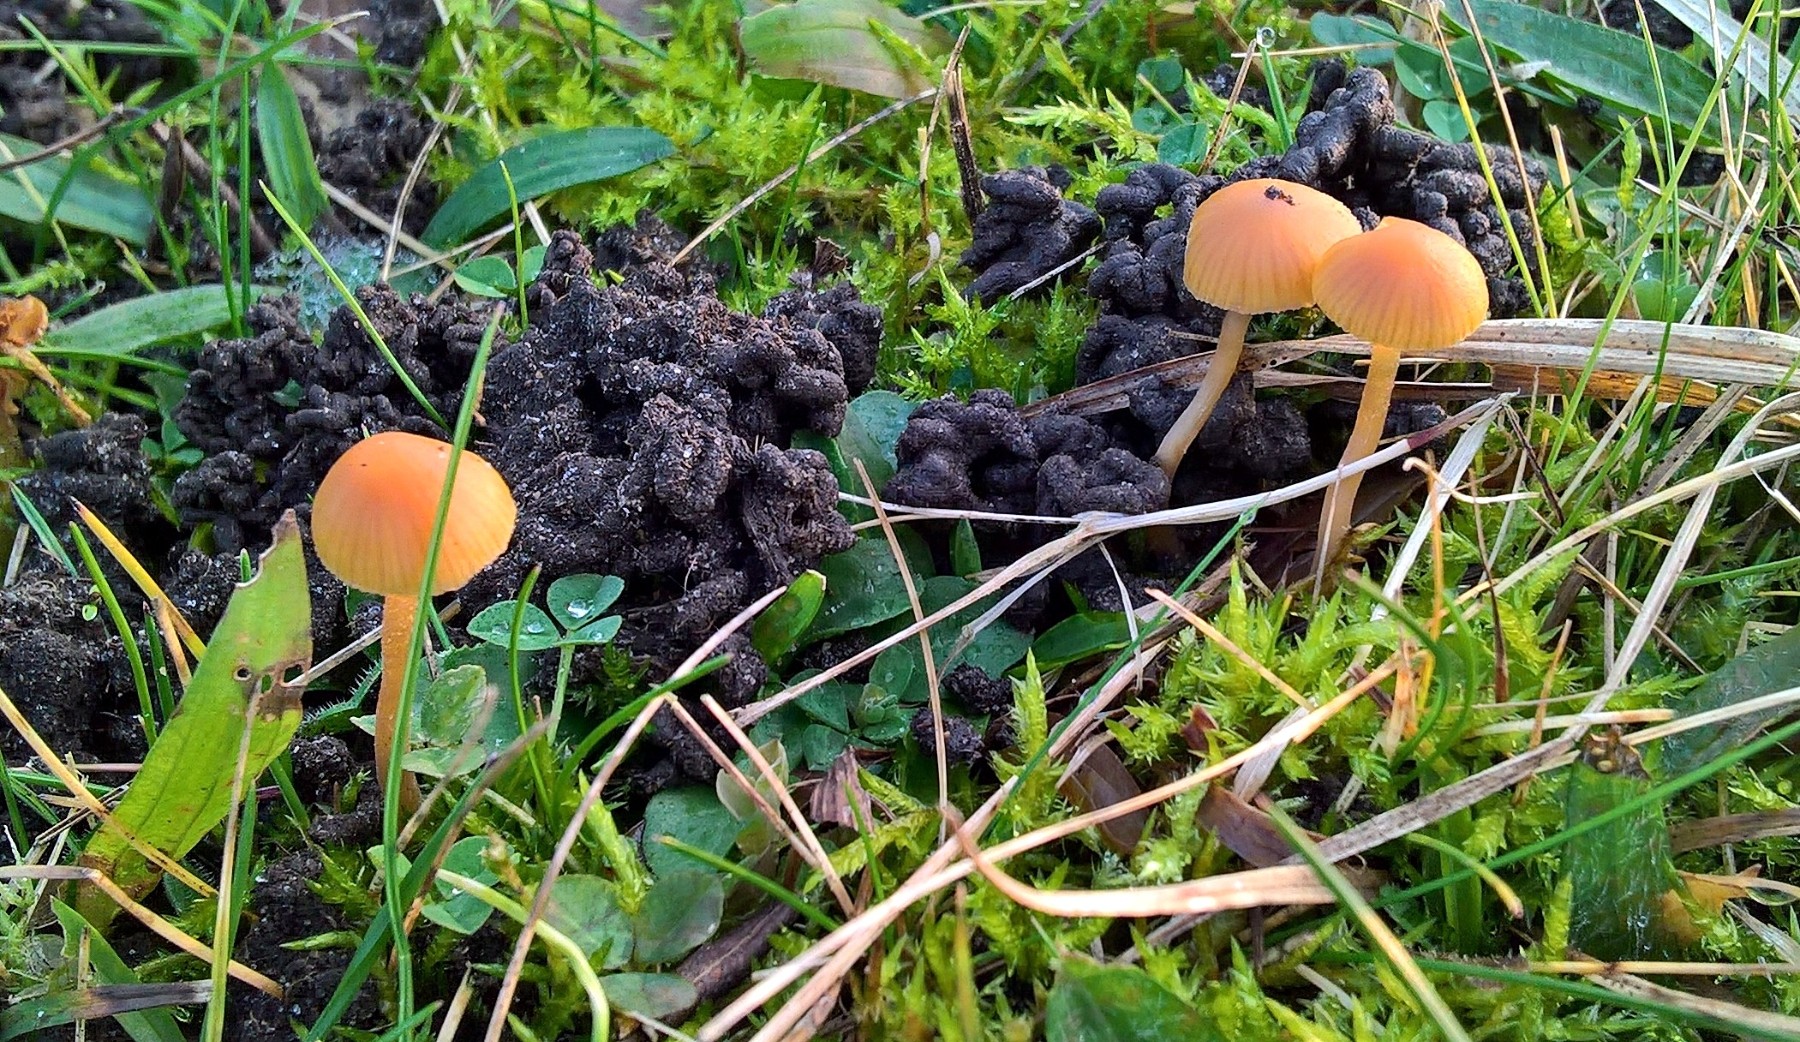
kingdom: Fungi
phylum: Basidiomycota
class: Agaricomycetes
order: Agaricales
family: Hymenogastraceae
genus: Galerina
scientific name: Galerina
